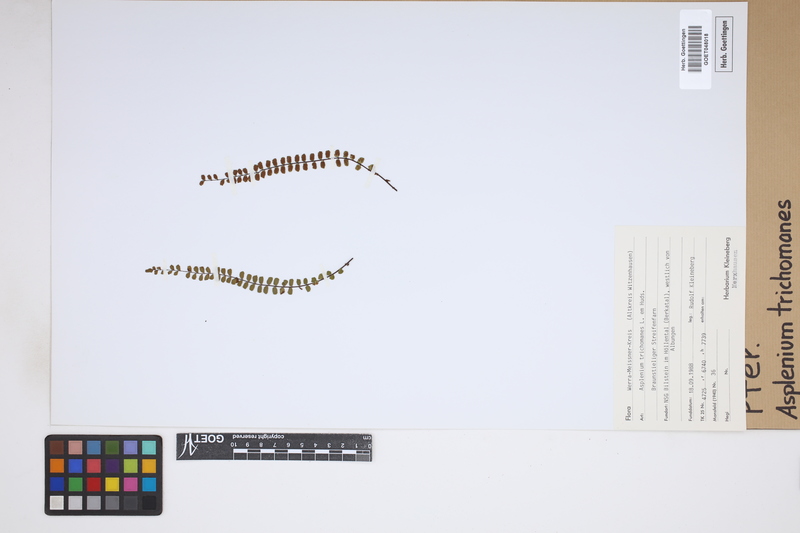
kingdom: Plantae
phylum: Tracheophyta
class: Polypodiopsida
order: Polypodiales
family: Aspleniaceae
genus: Asplenium
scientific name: Asplenium trichomanes
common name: Maidenhair spleenwort
